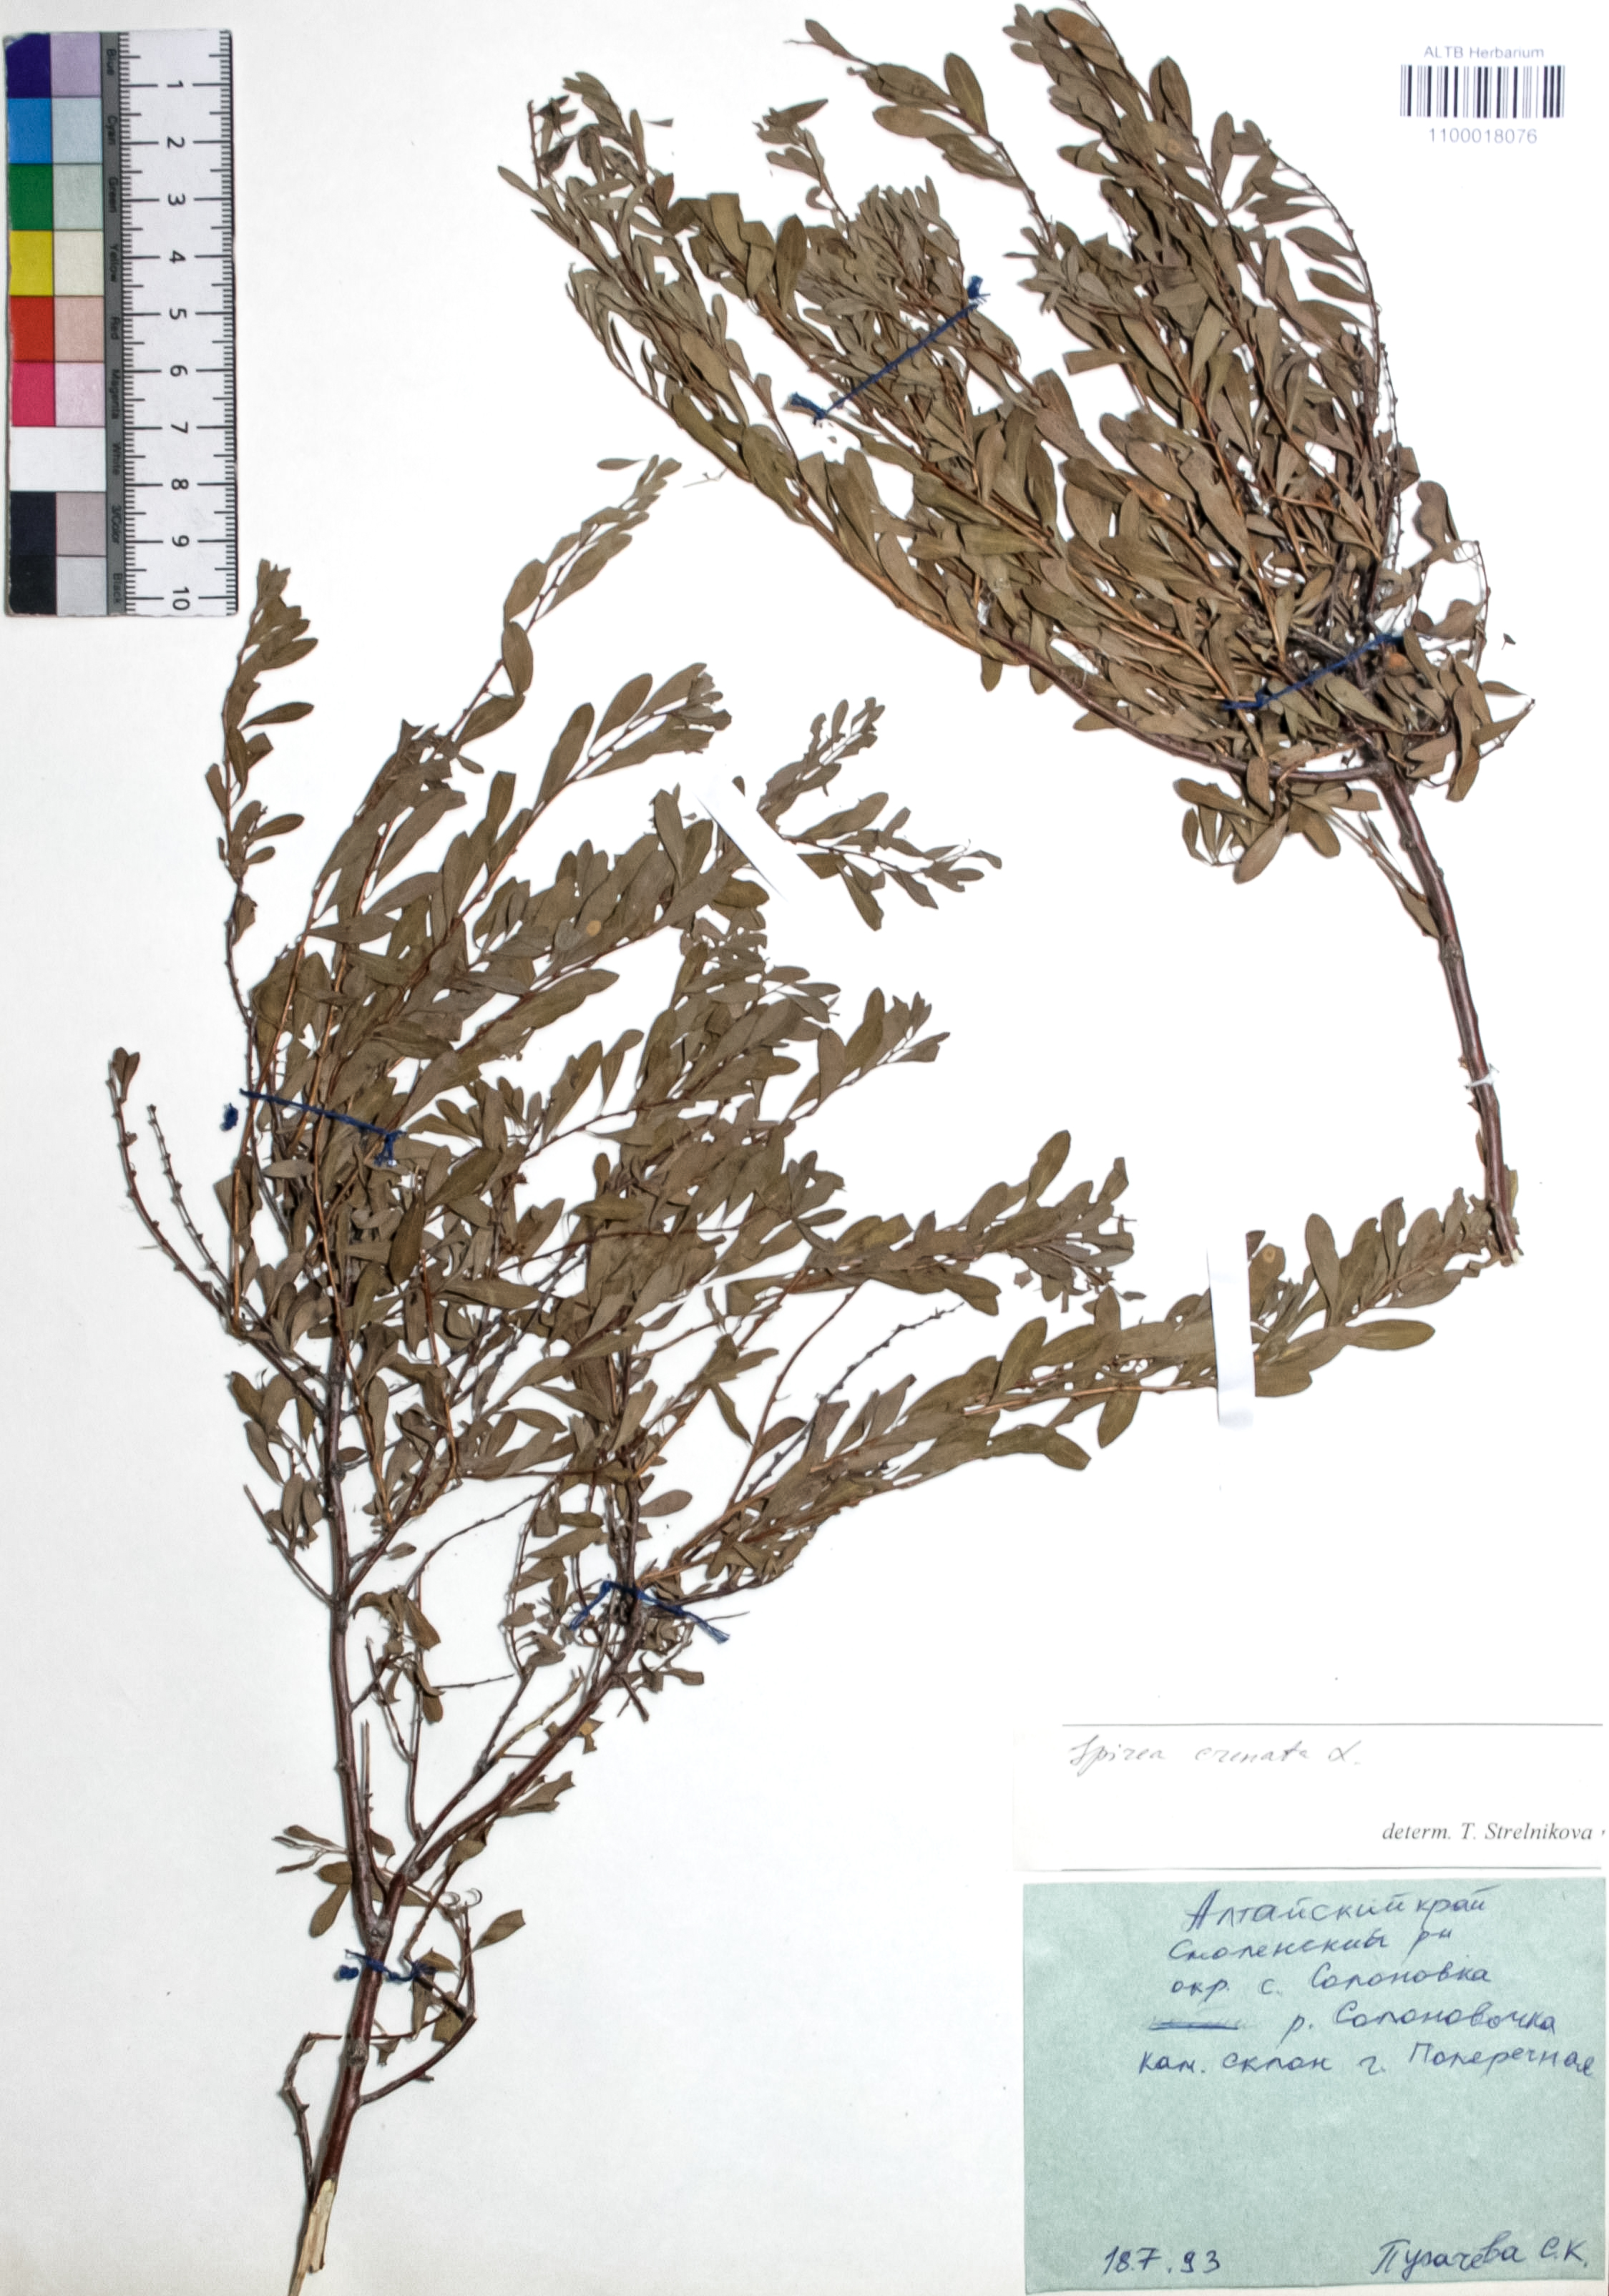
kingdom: Plantae
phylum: Tracheophyta
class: Magnoliopsida
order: Rosales
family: Rosaceae
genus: Spiraea
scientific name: Spiraea crenata
